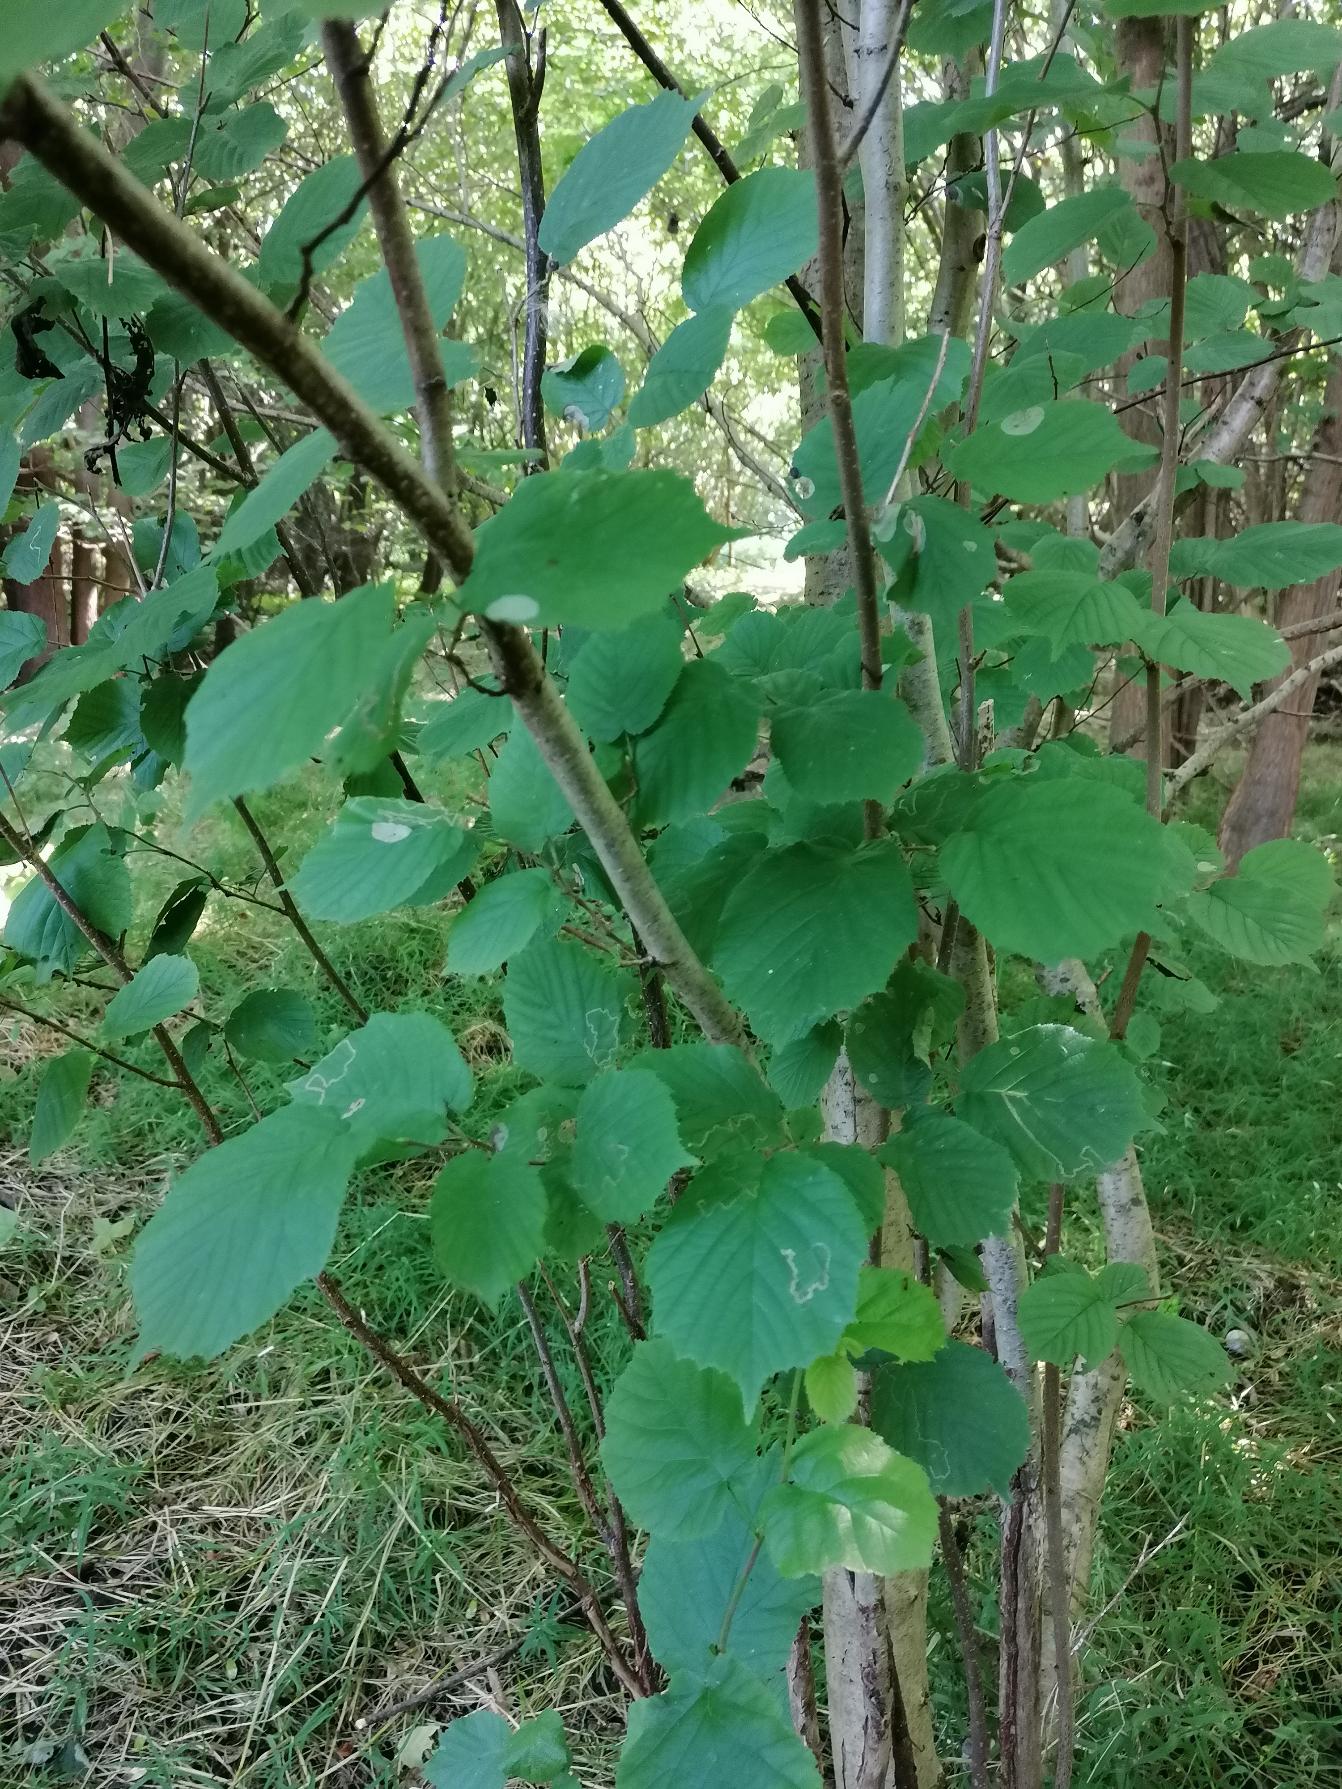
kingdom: Plantae
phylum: Tracheophyta
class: Magnoliopsida
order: Fagales
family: Betulaceae
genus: Corylus
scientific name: Corylus avellana
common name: Hassel
